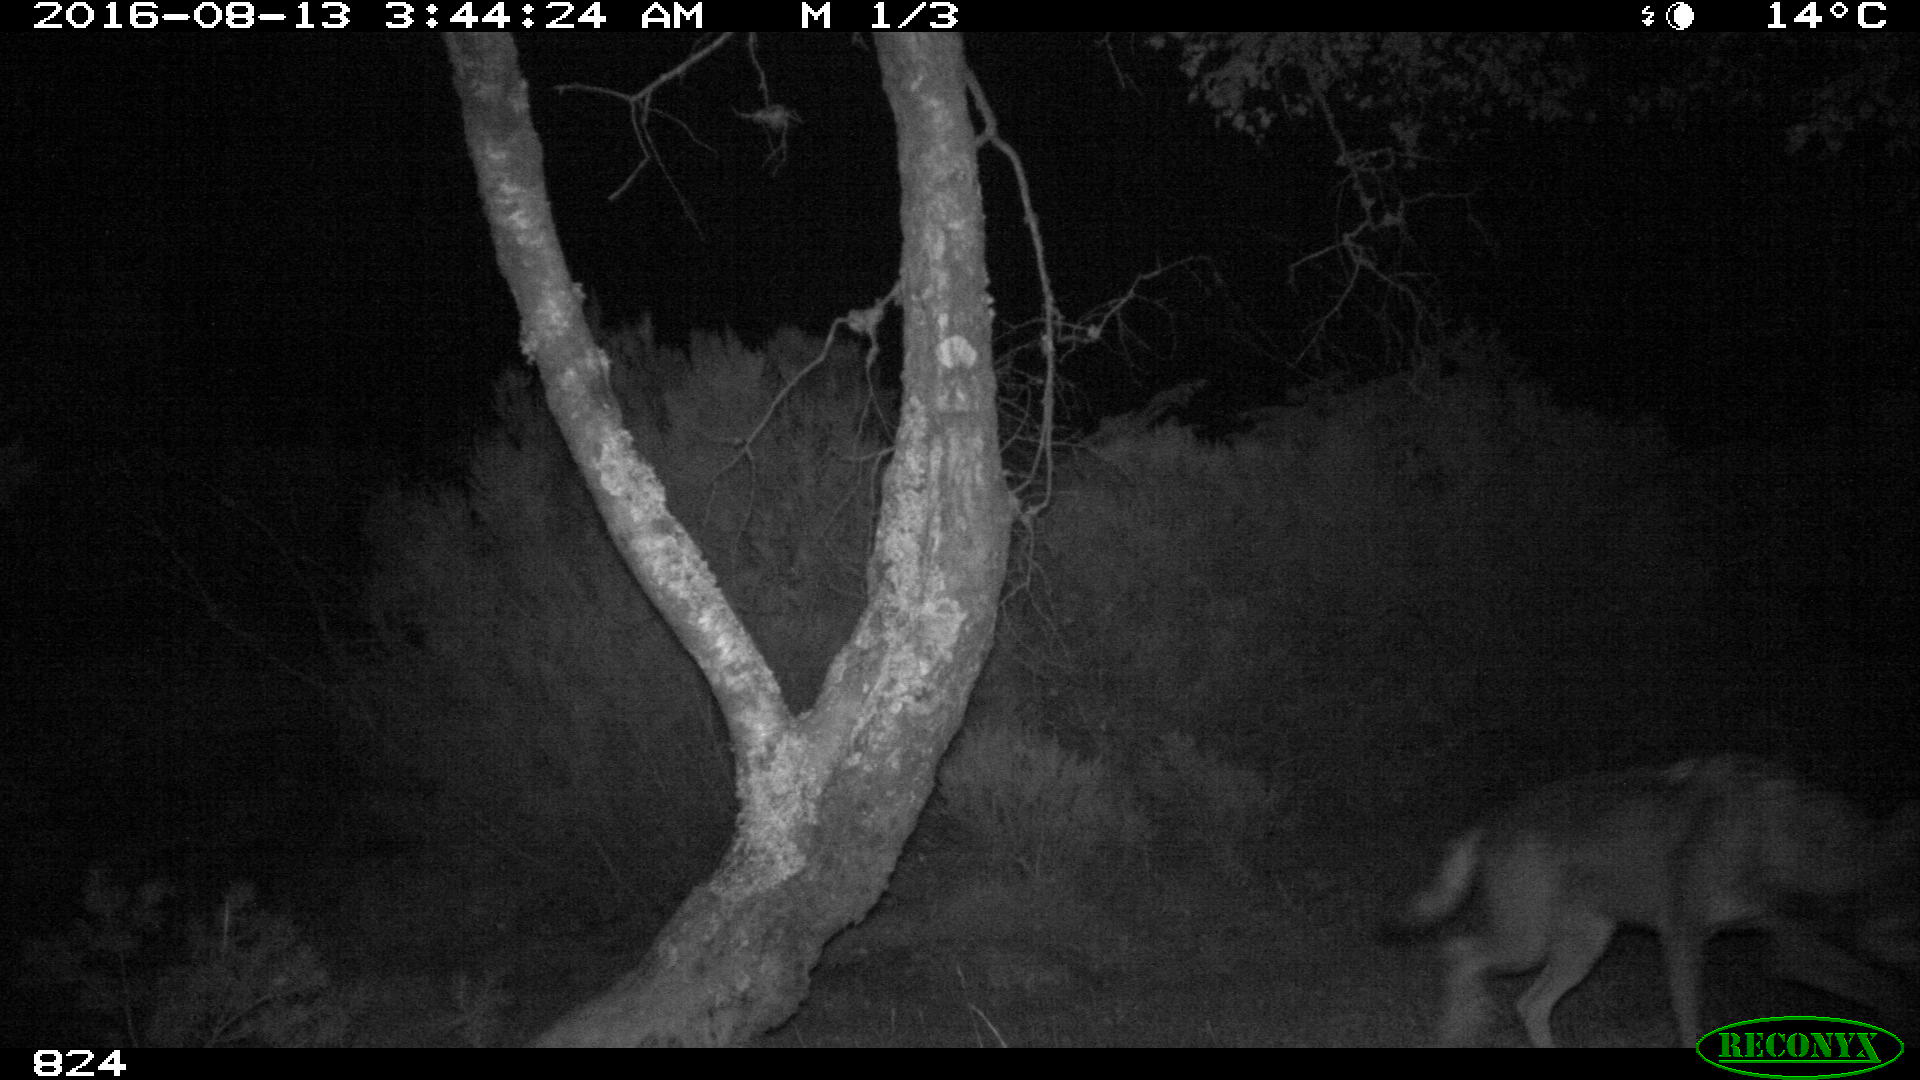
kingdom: Animalia
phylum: Chordata
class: Mammalia
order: Carnivora
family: Canidae
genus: Canis
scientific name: Canis lupus
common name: Gray wolf
